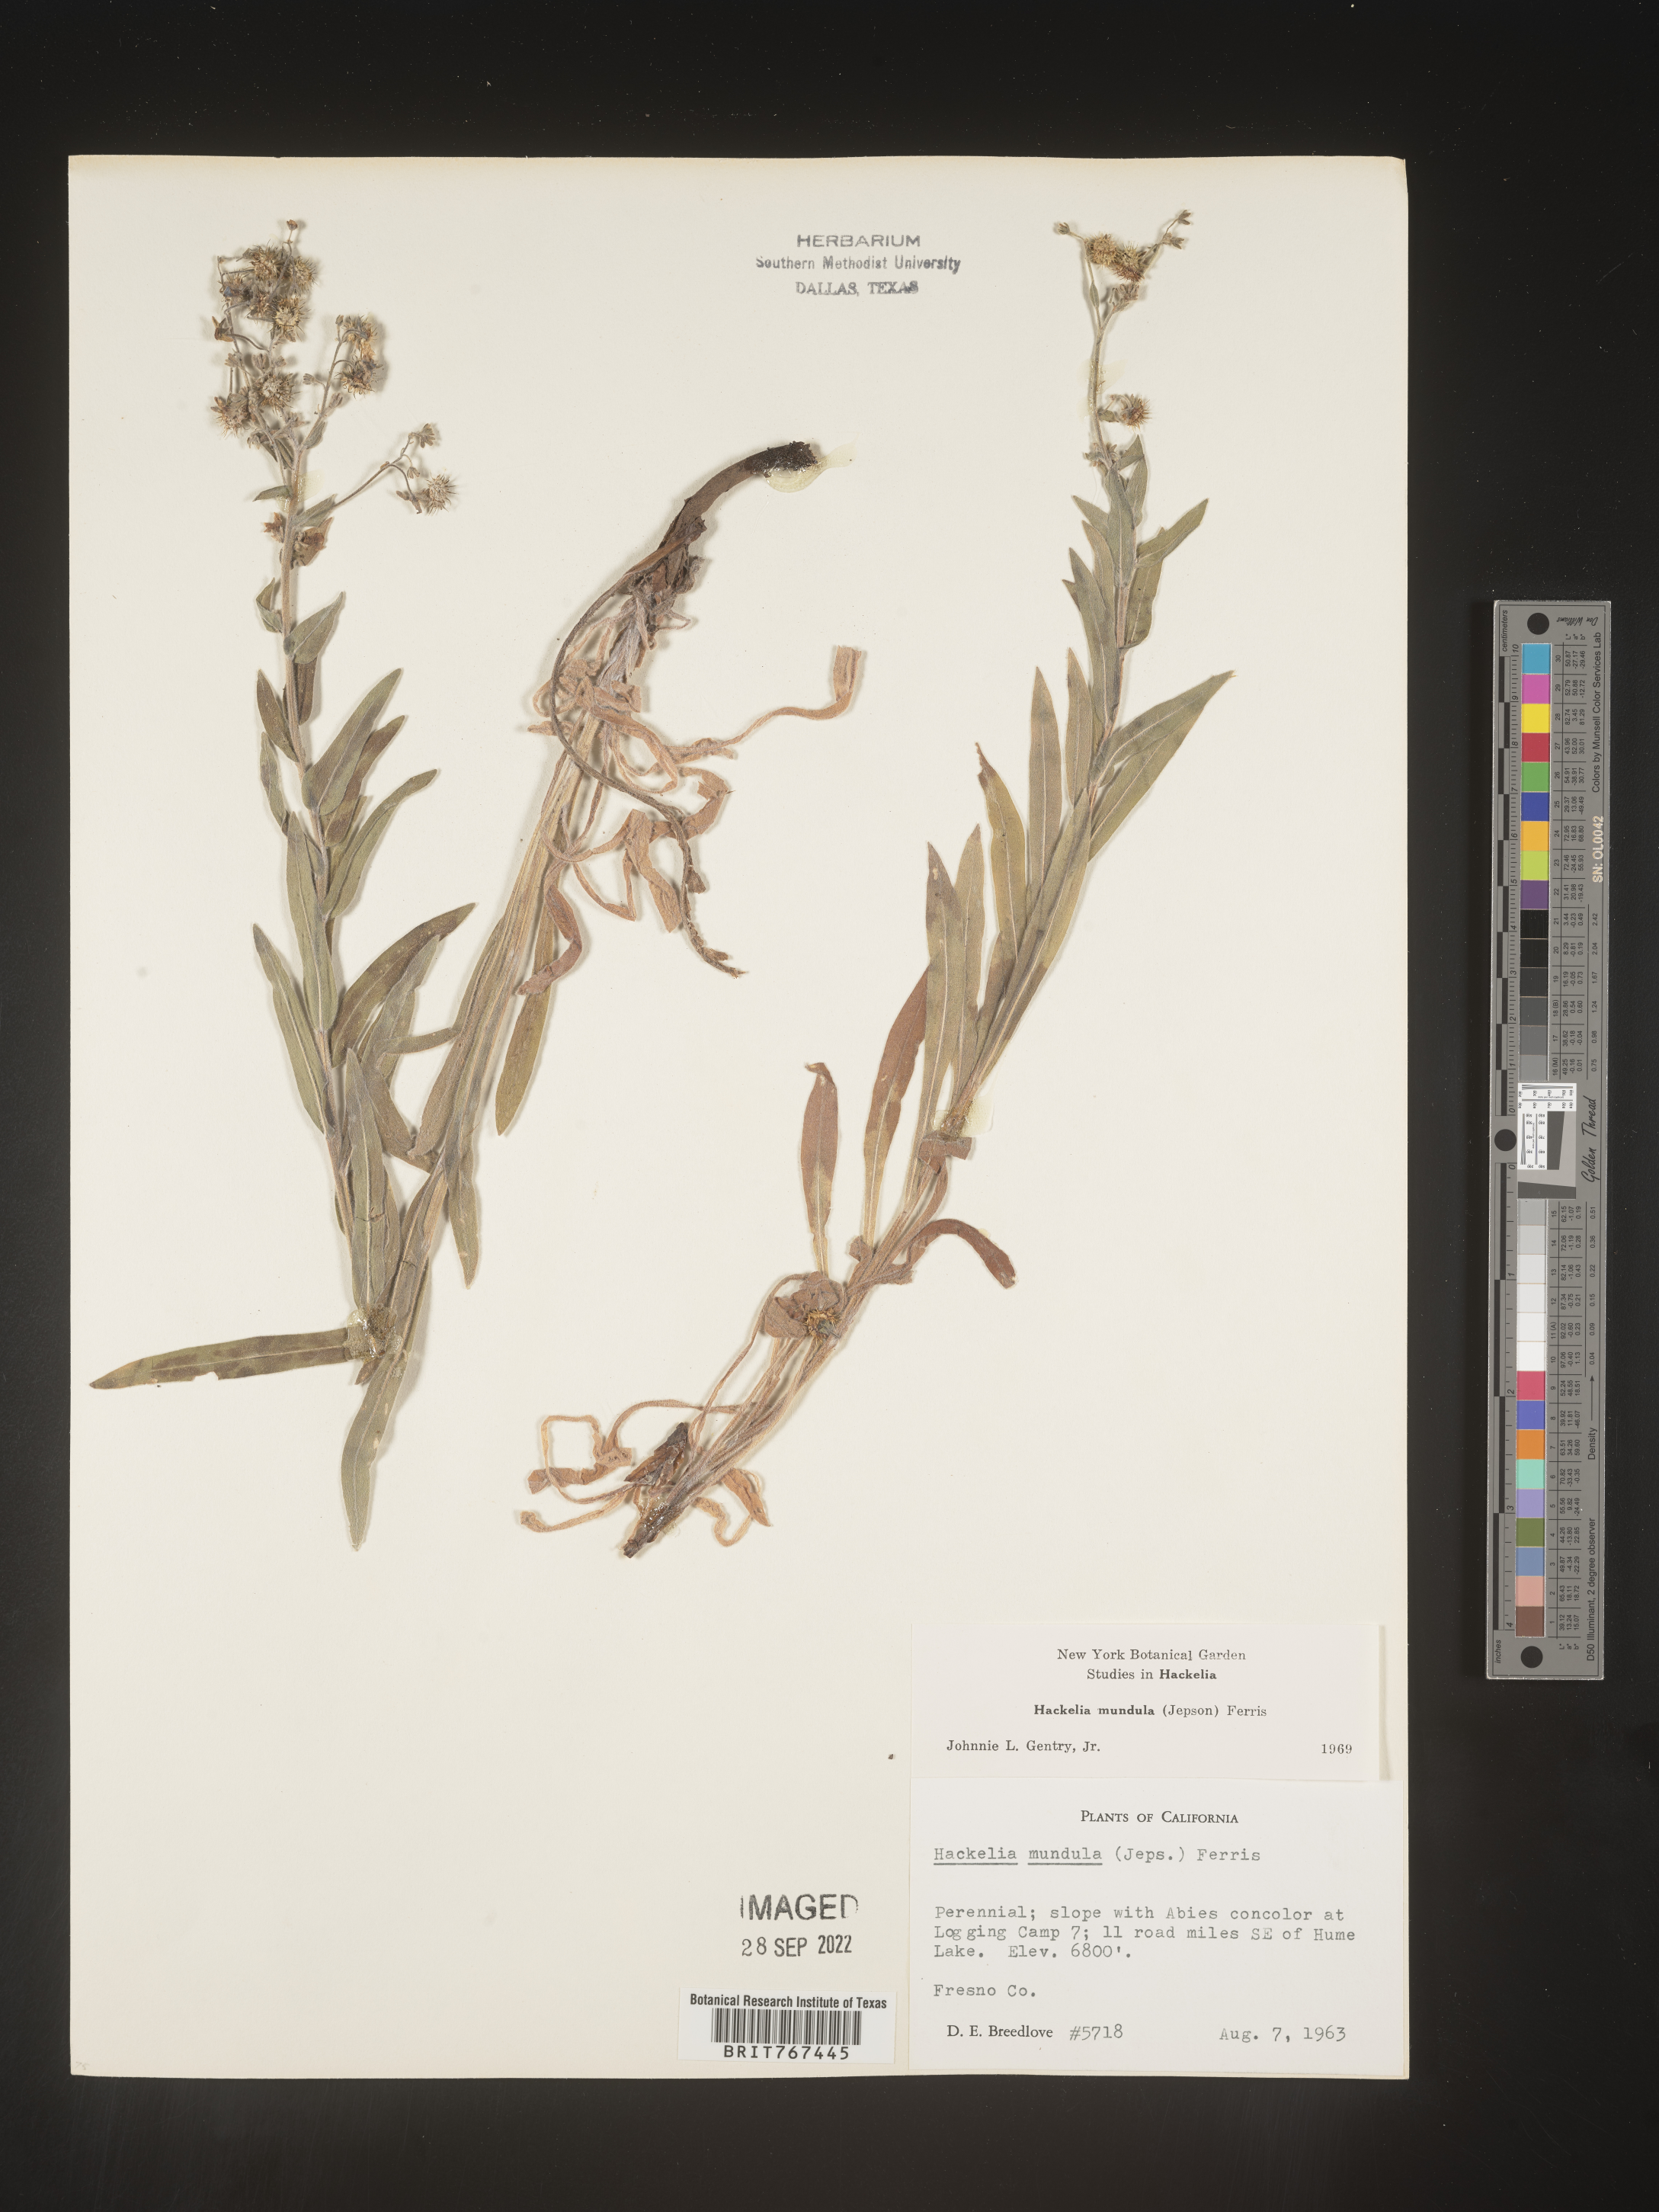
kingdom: Plantae
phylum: Tracheophyta
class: Magnoliopsida
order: Boraginales
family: Boraginaceae
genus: Hackelia
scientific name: Hackelia
